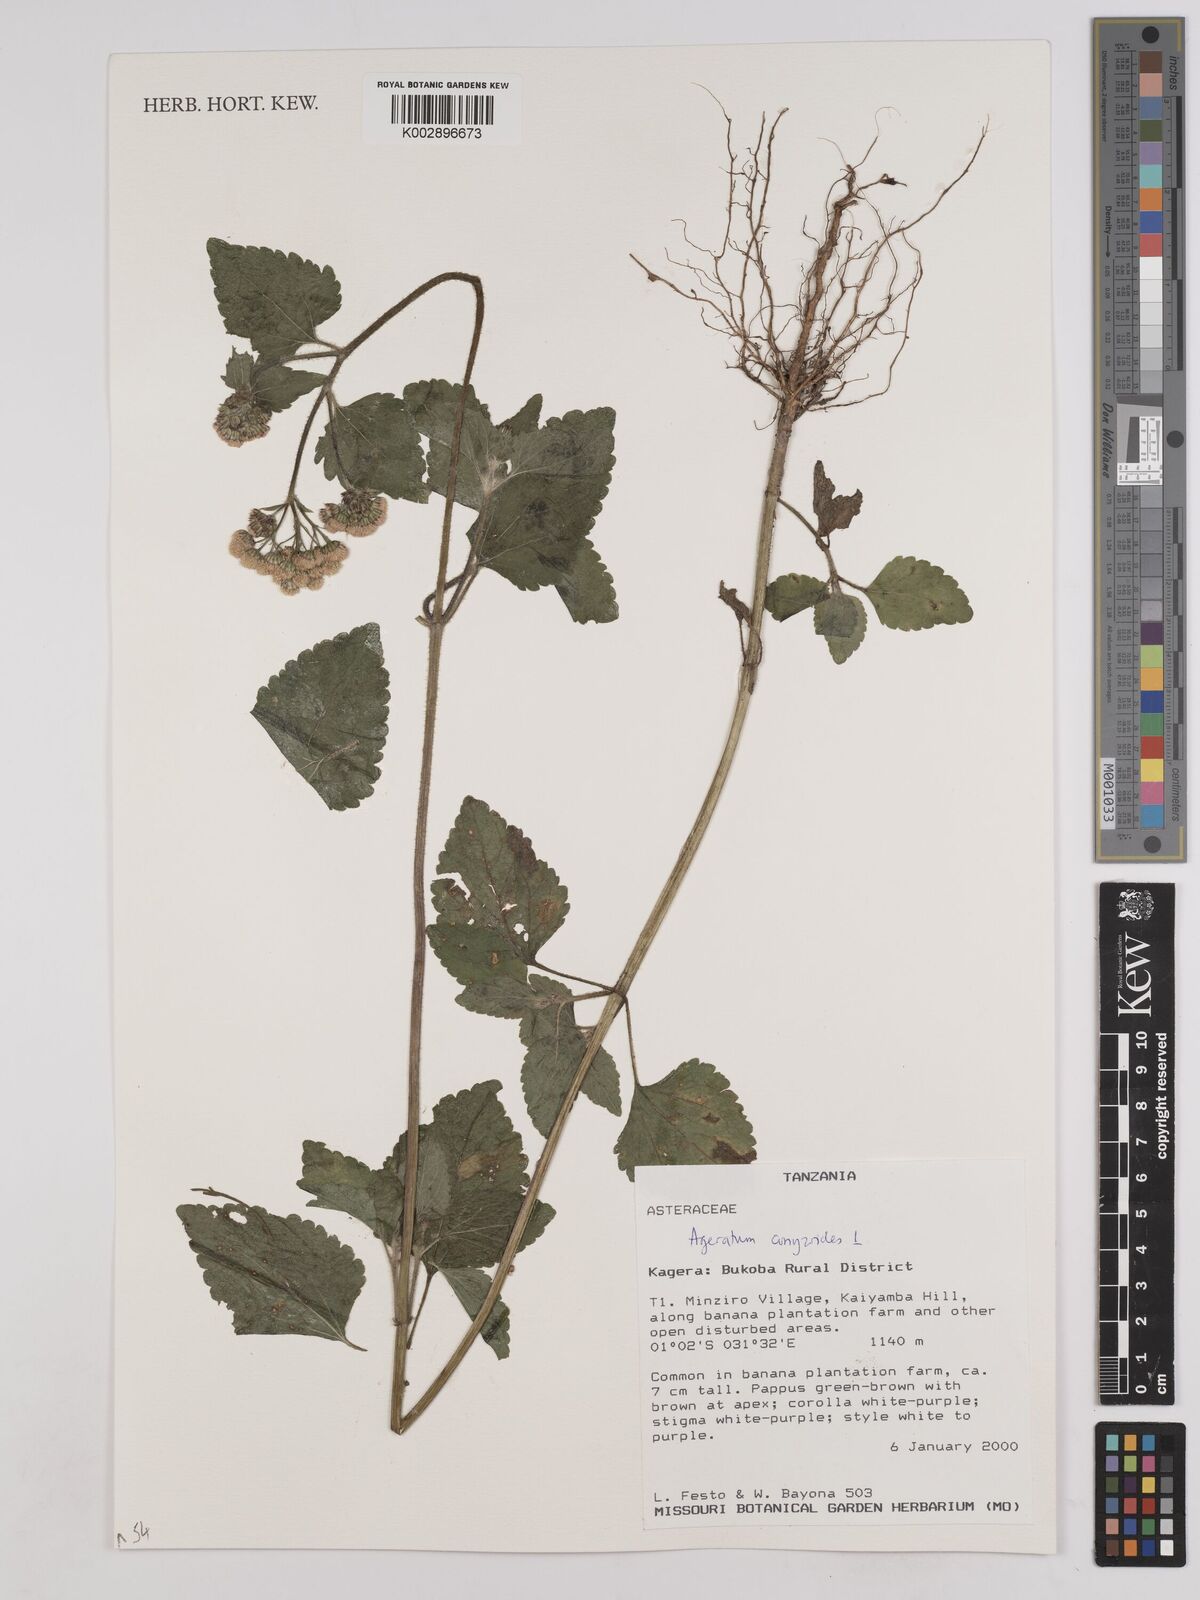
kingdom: Plantae
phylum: Tracheophyta
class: Magnoliopsida
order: Asterales
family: Asteraceae
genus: Ageratum
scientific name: Ageratum conyzoides
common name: Tropical whiteweed
